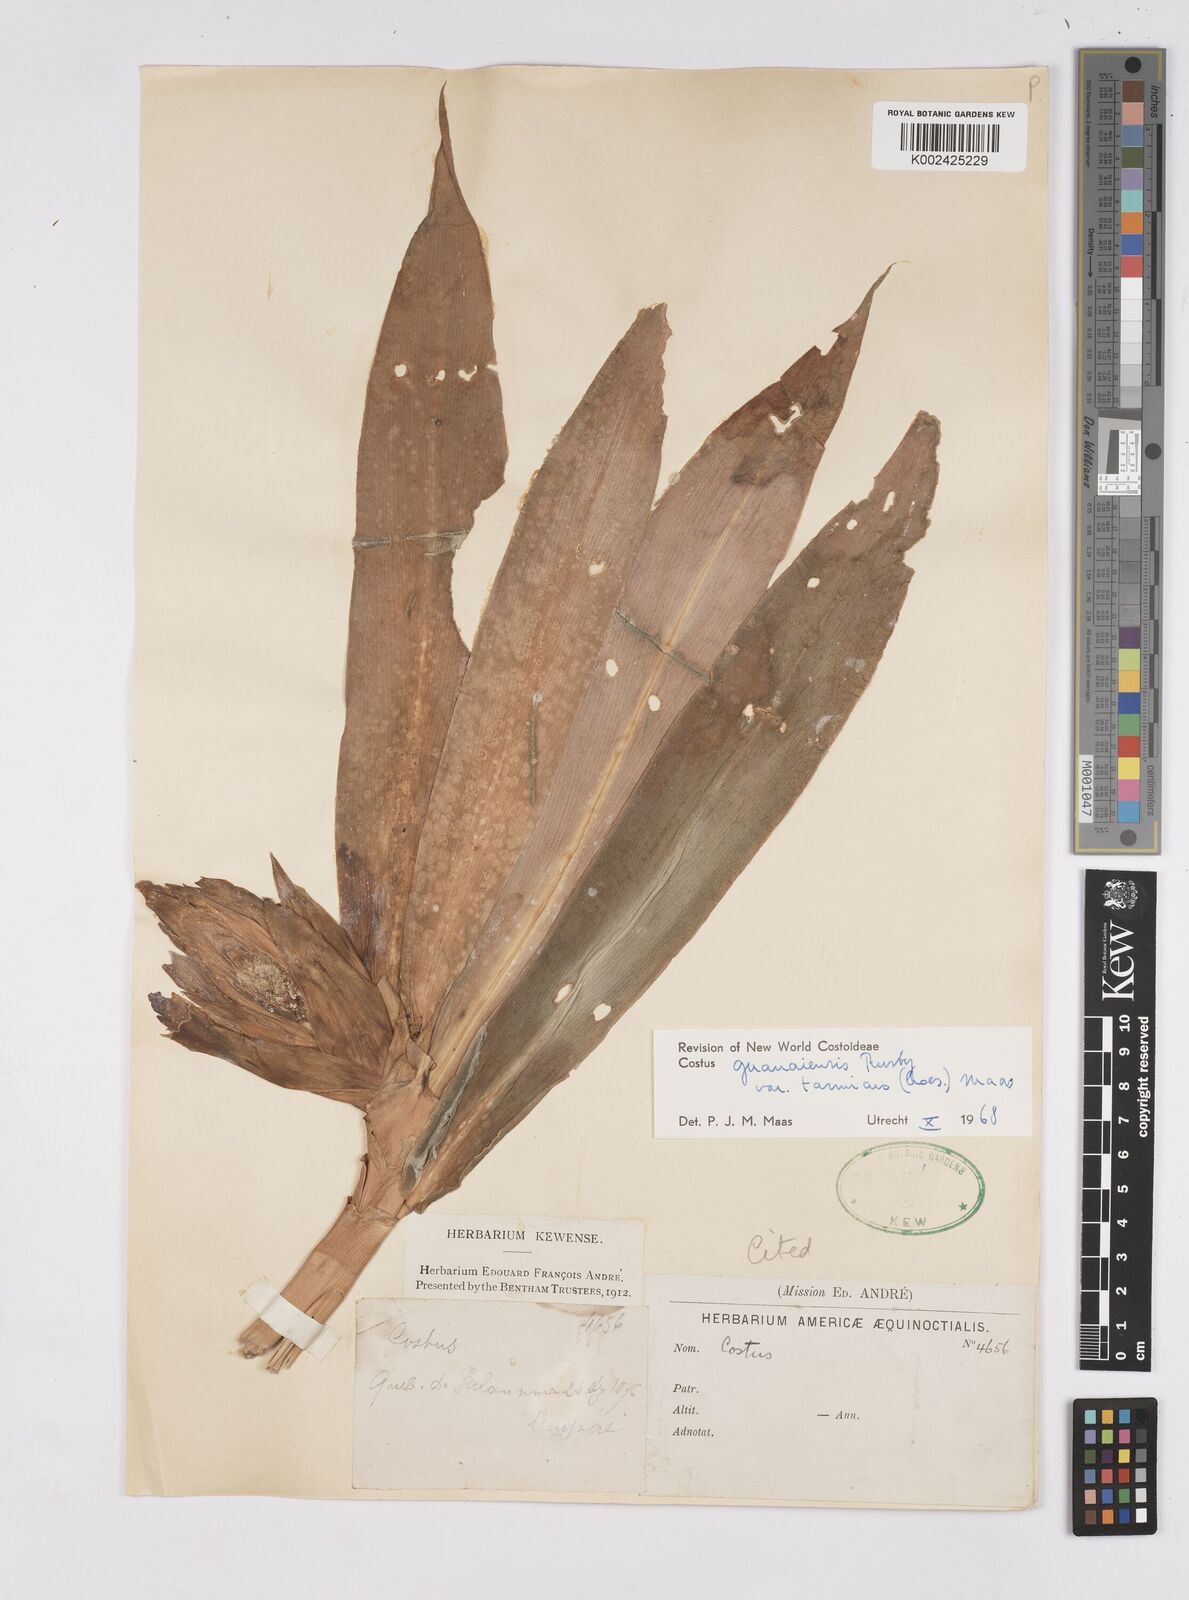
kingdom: Plantae
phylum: Tracheophyta
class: Liliopsida
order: Zingiberales
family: Costaceae
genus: Costus
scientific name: Costus guanaiensis
